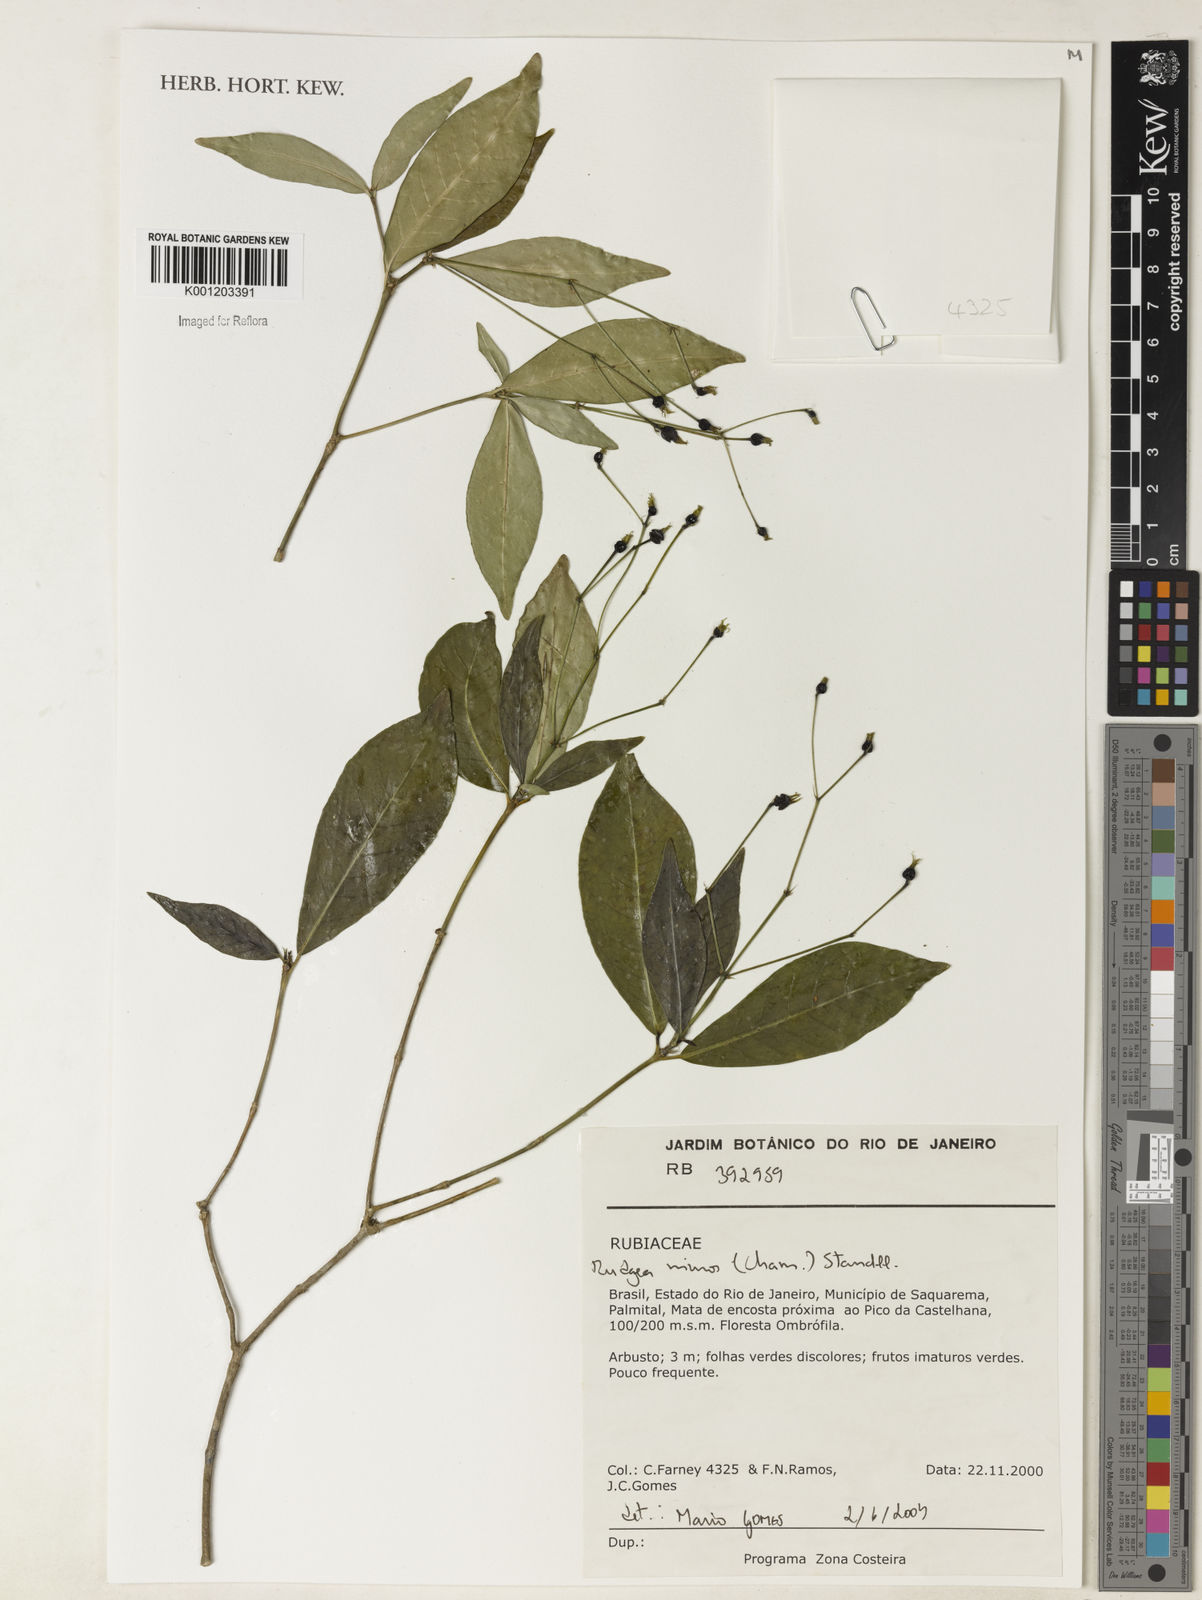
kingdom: Plantae
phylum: Tracheophyta
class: Magnoliopsida
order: Gentianales
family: Rubiaceae
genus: Rudgea
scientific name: Rudgea minor
